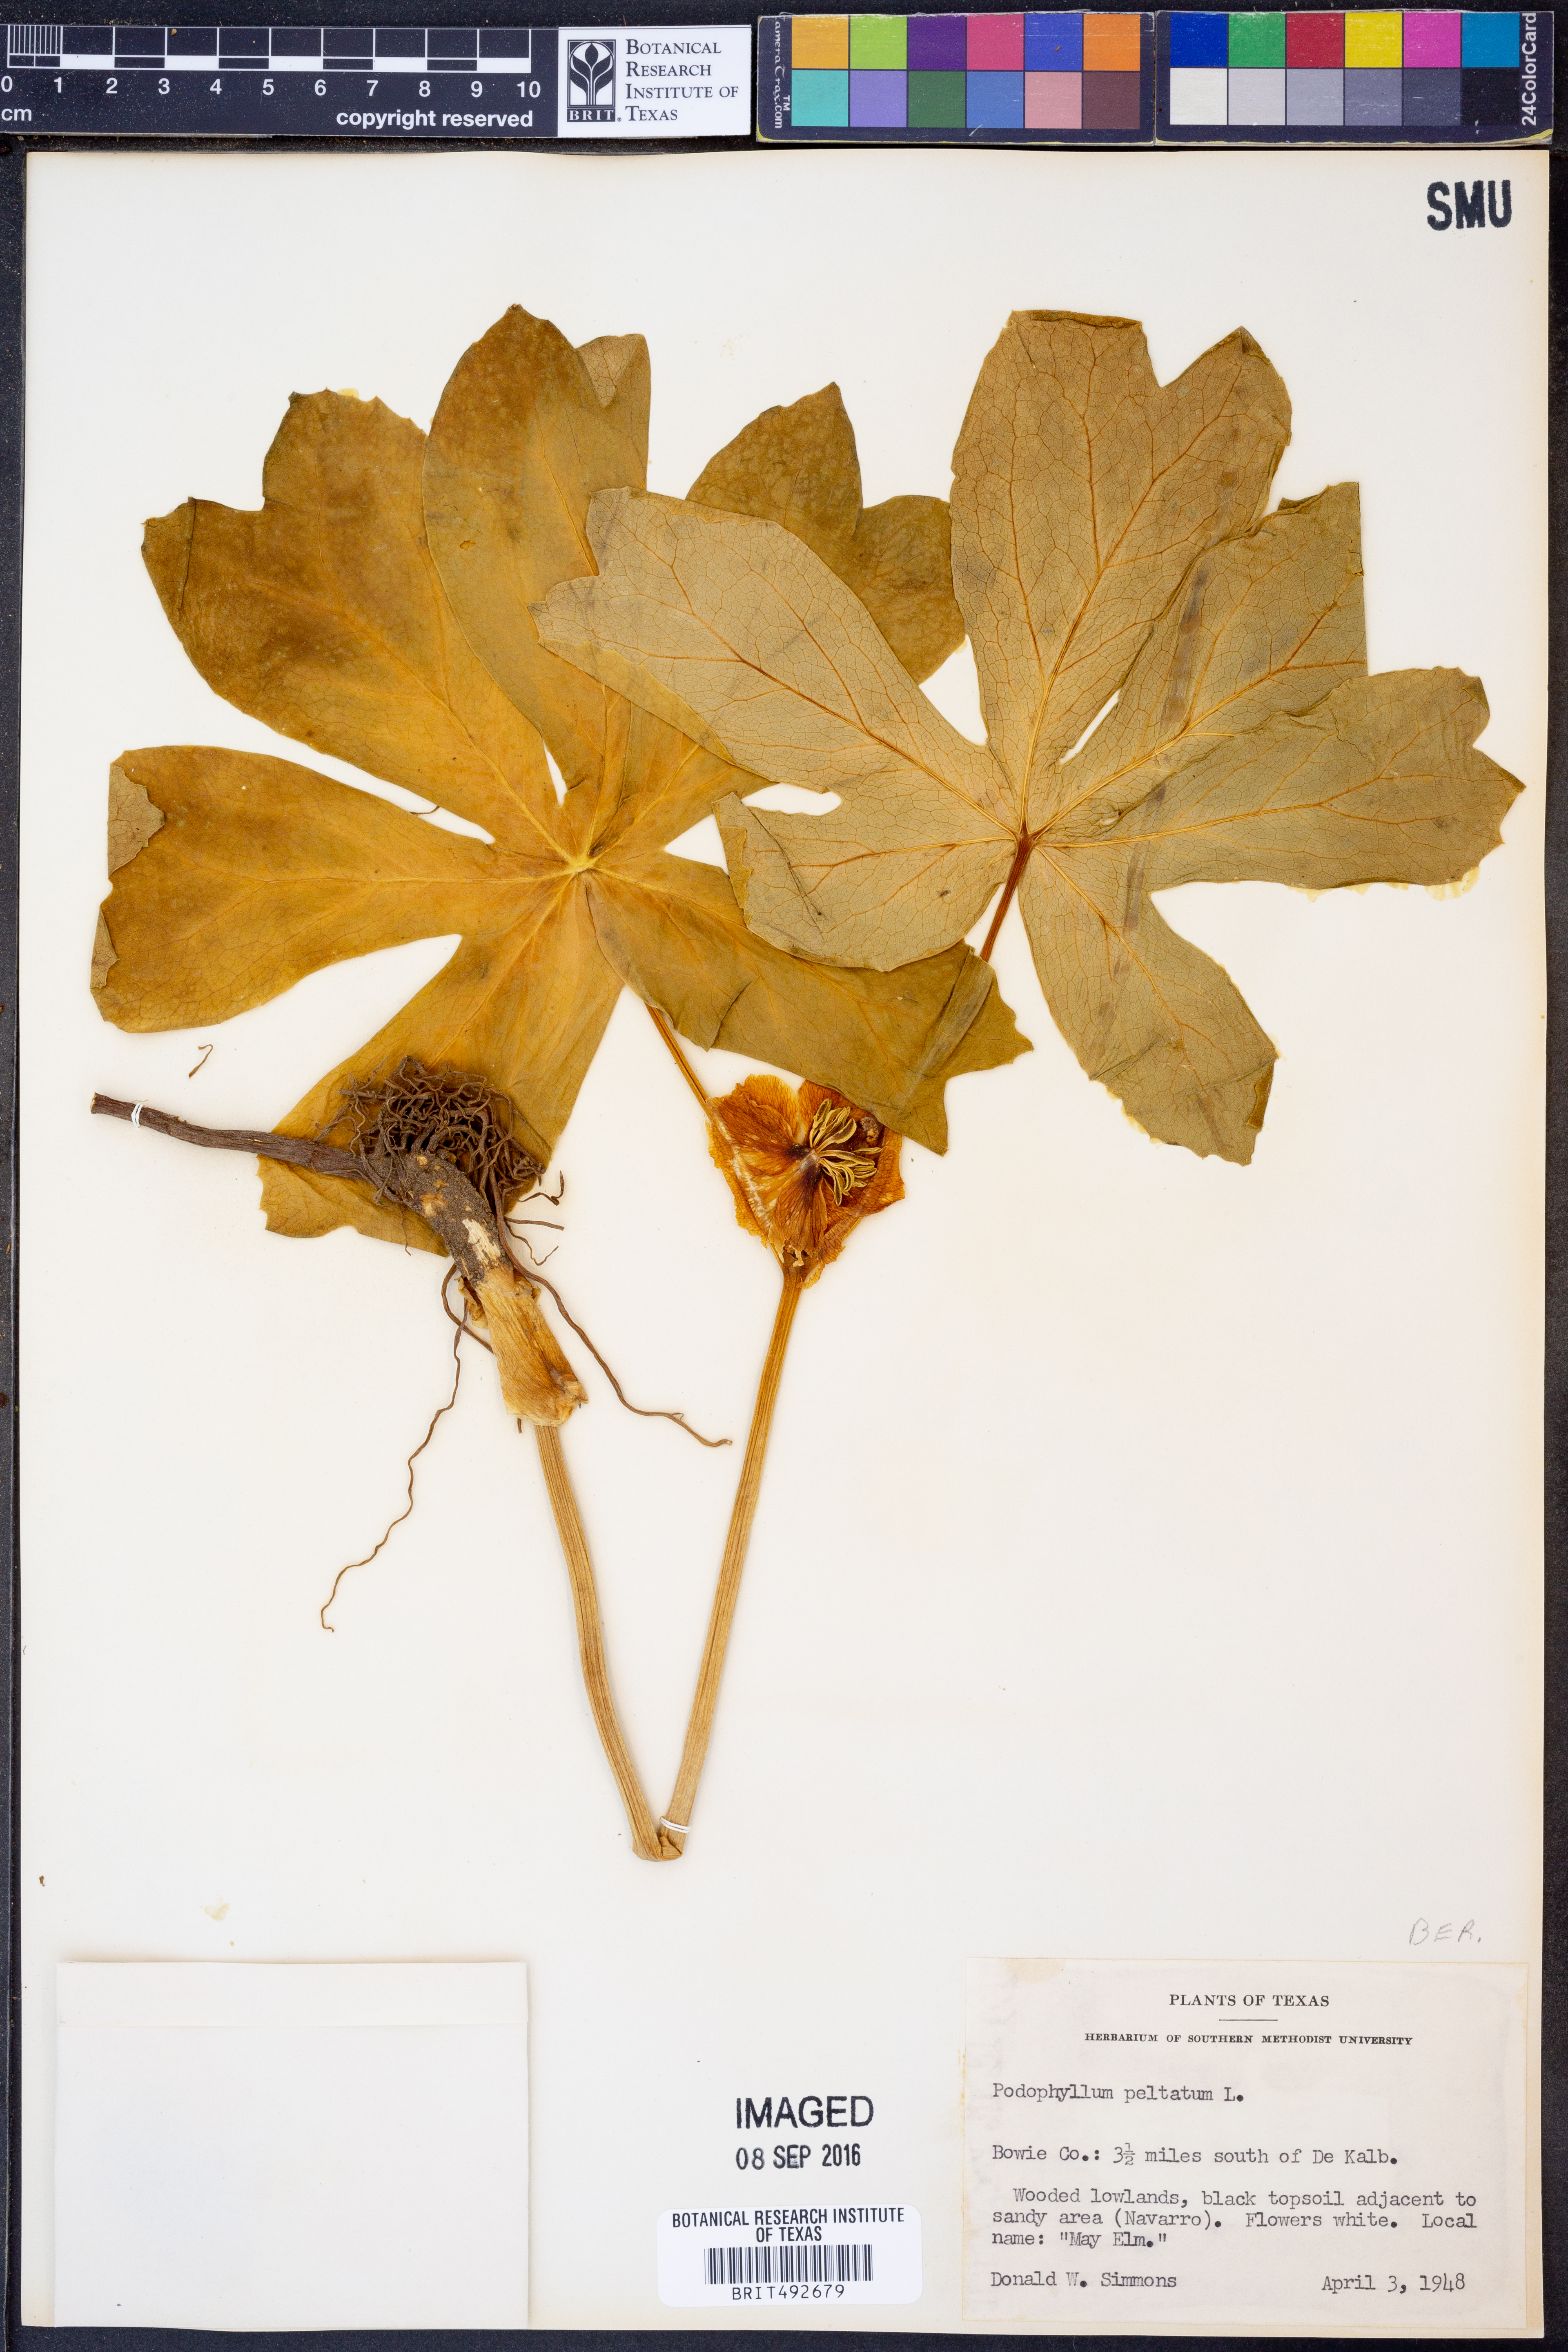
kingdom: Plantae
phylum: Tracheophyta
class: Magnoliopsida
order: Ranunculales
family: Berberidaceae
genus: Podophyllum
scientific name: Podophyllum peltatum
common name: Wild mandrake
